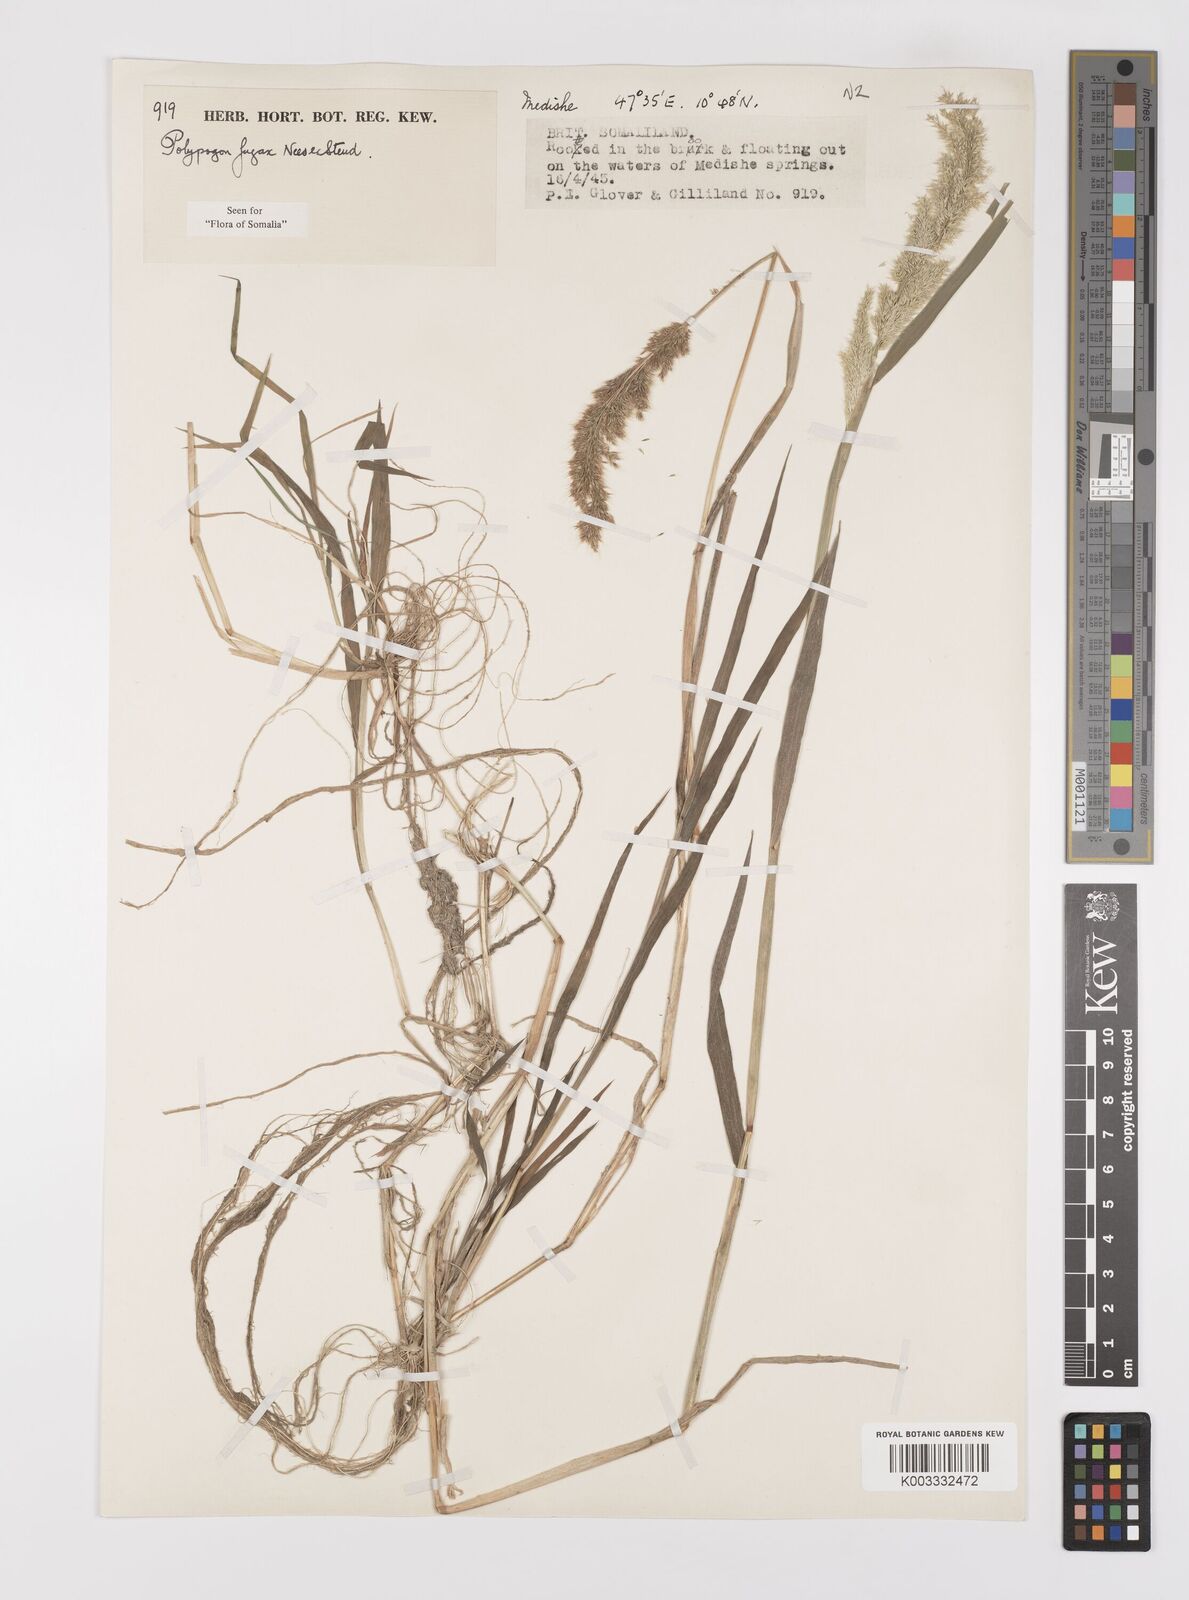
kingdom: Plantae
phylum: Tracheophyta
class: Liliopsida
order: Poales
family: Poaceae
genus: Polypogon
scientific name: Polypogon fugax
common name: Asia minor bluegrass
